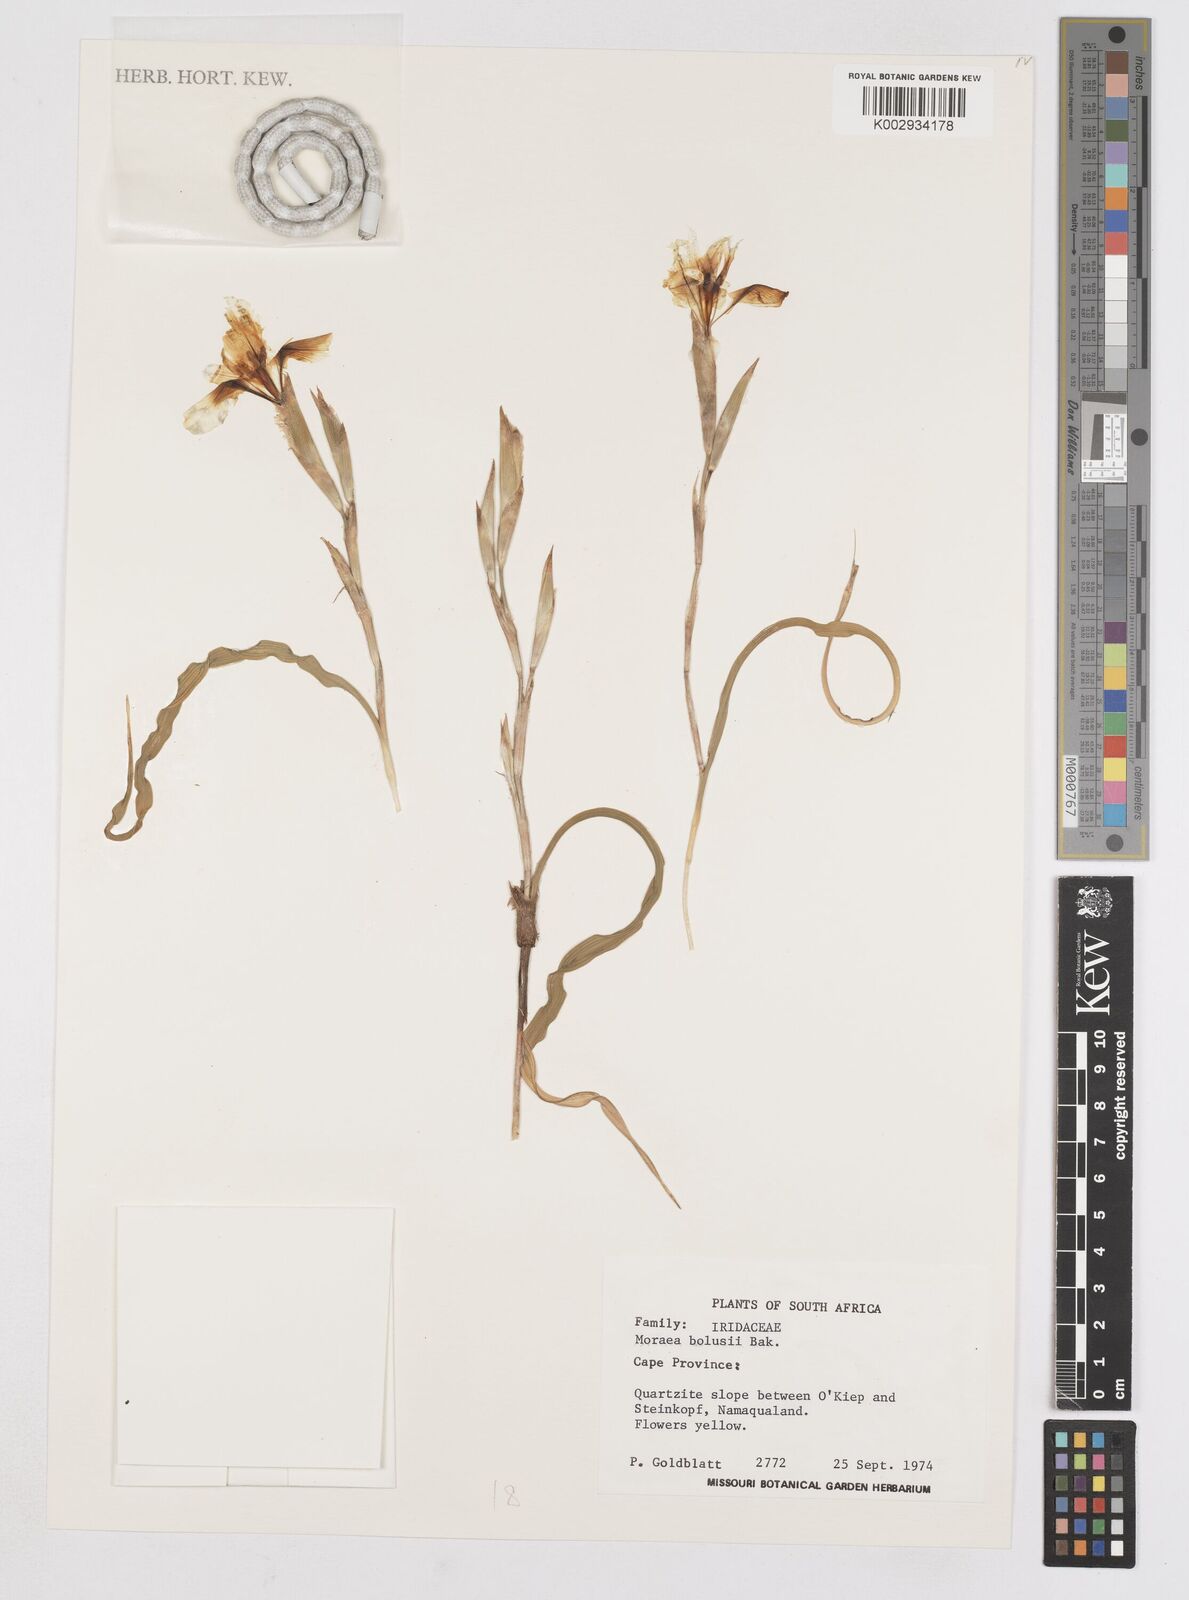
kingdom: Plantae
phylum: Tracheophyta
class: Liliopsida
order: Asparagales
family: Iridaceae
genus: Moraea
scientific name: Moraea bolusii
